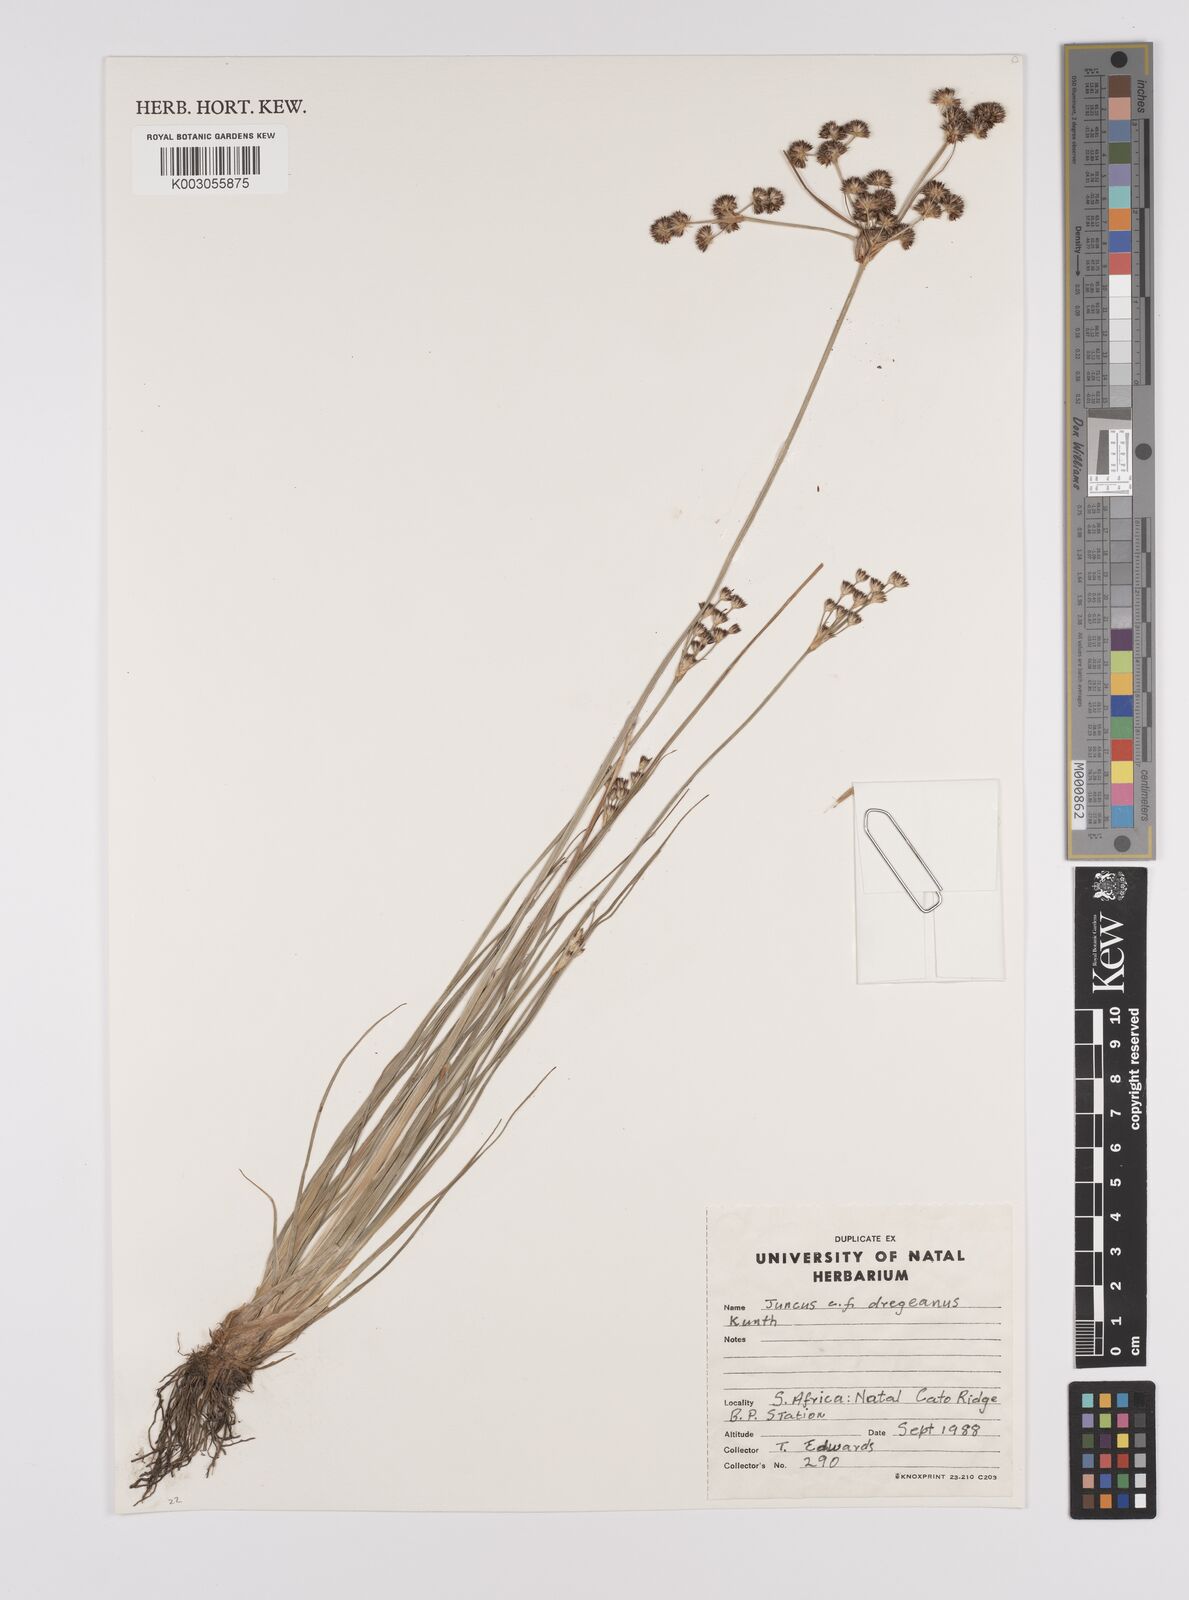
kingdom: Plantae
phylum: Tracheophyta
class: Liliopsida
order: Poales
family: Juncaceae
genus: Juncus
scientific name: Juncus dregeanus
